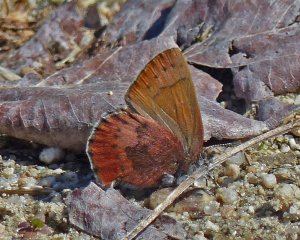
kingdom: Animalia
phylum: Arthropoda
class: Insecta
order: Lepidoptera
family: Lycaenidae
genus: Incisalia
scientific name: Incisalia irioides
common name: Brown Elfin
